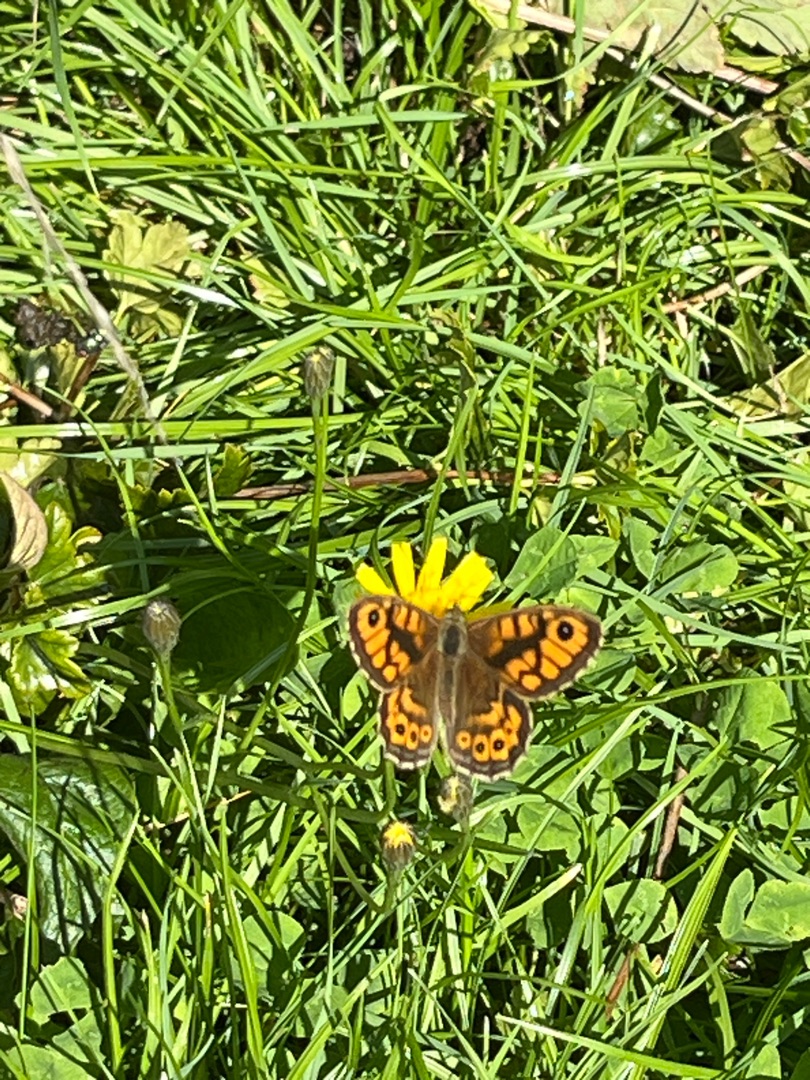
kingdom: Animalia
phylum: Arthropoda
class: Insecta
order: Lepidoptera
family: Nymphalidae
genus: Pararge
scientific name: Pararge Lasiommata megera
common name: Vejrandøje
